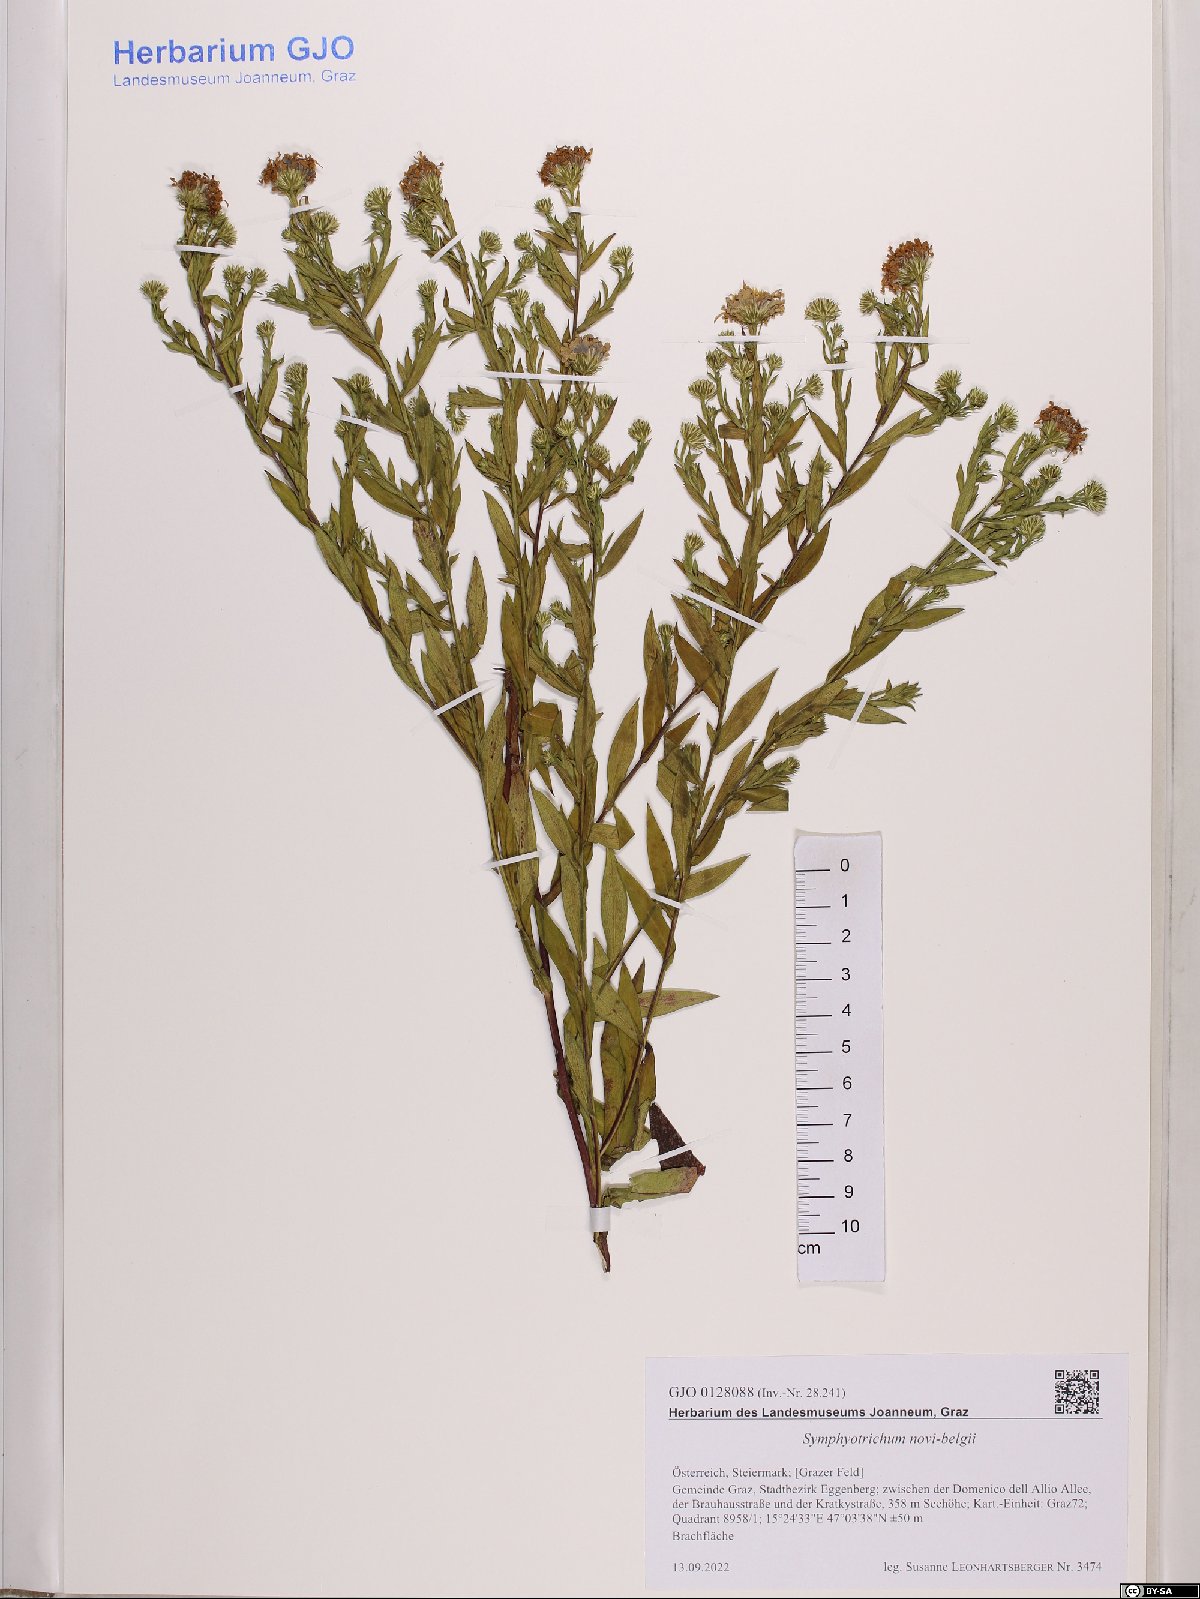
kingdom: Plantae
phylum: Tracheophyta
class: Magnoliopsida
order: Asterales
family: Asteraceae
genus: Symphyotrichum
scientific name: Symphyotrichum novi-belgii
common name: Michaelmas daisy
